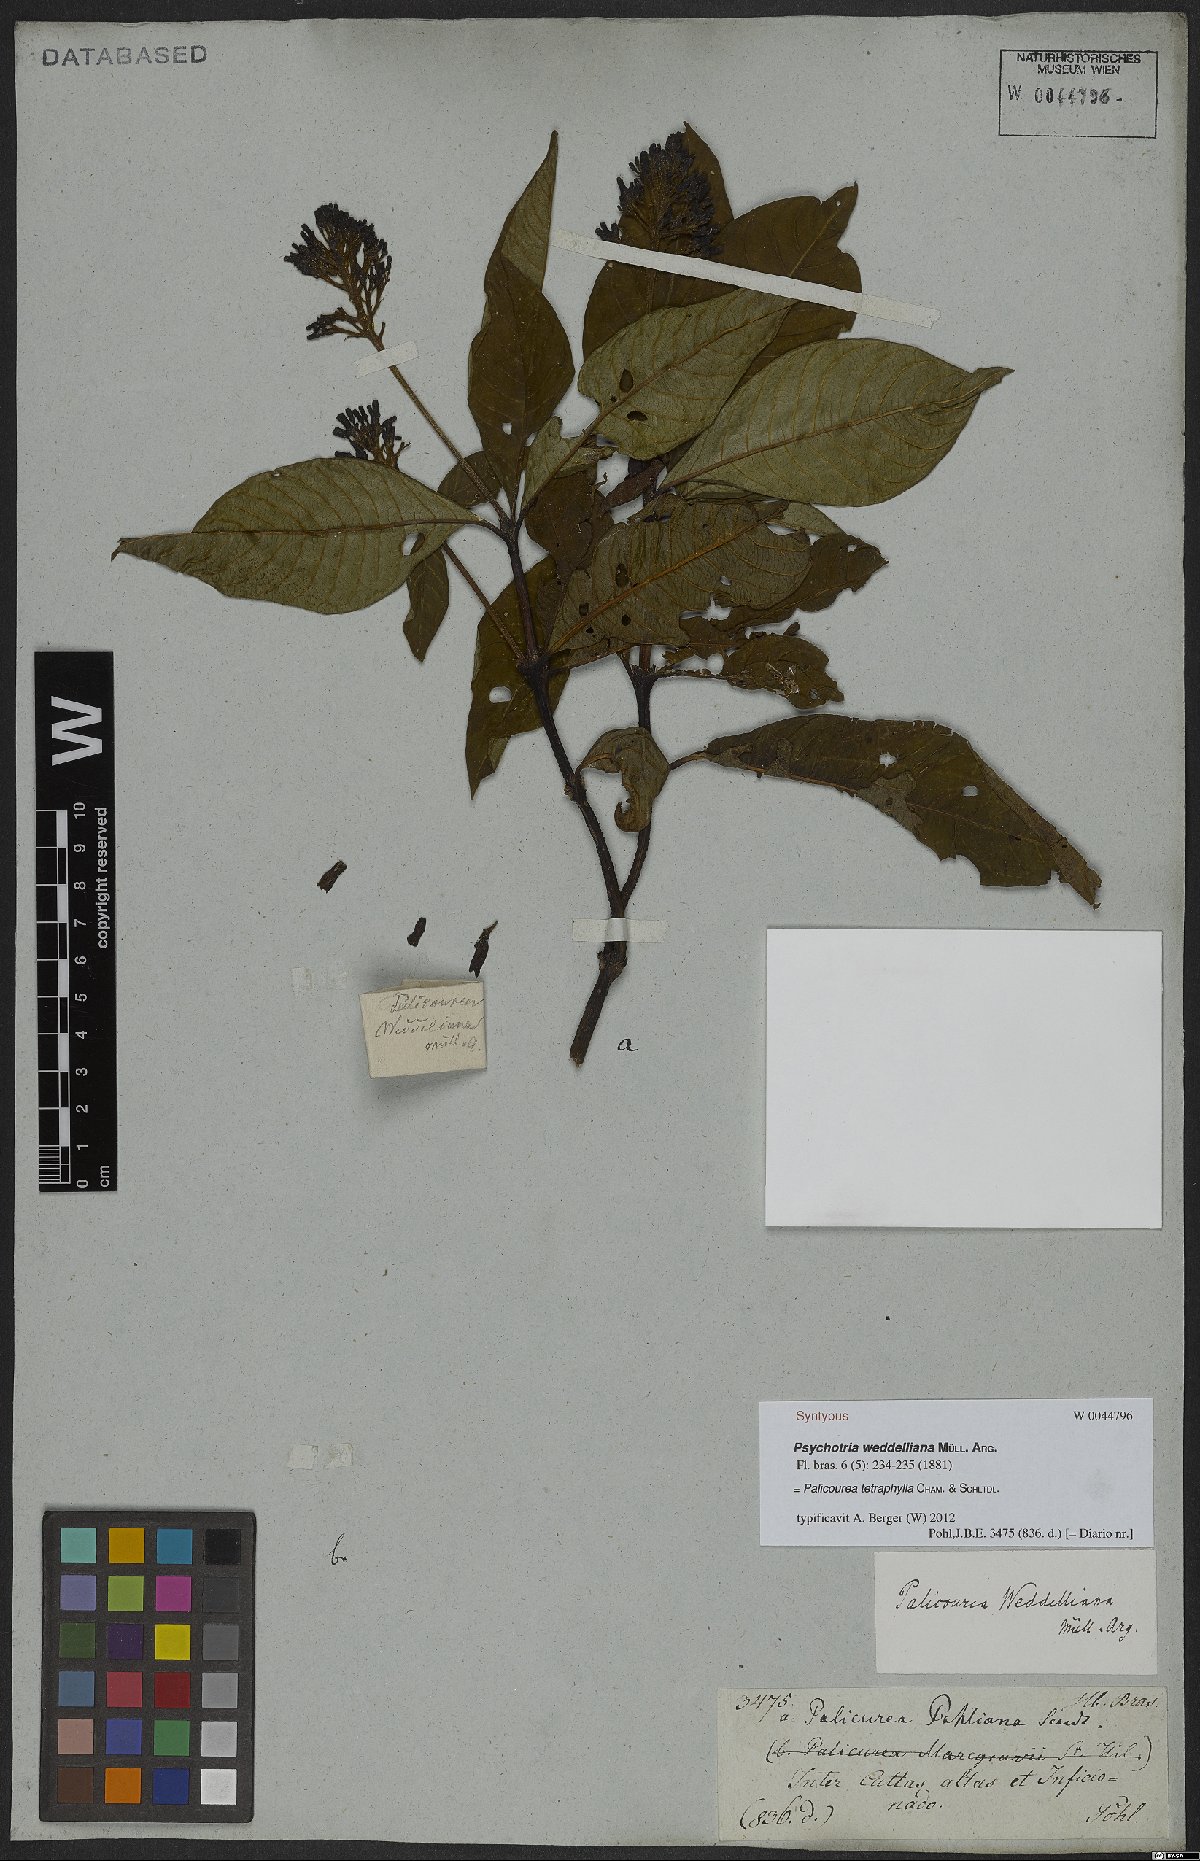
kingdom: Plantae
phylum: Tracheophyta
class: Magnoliopsida
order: Gentianales
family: Rubiaceae
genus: Palicourea
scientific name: Palicourea tetraphylla
